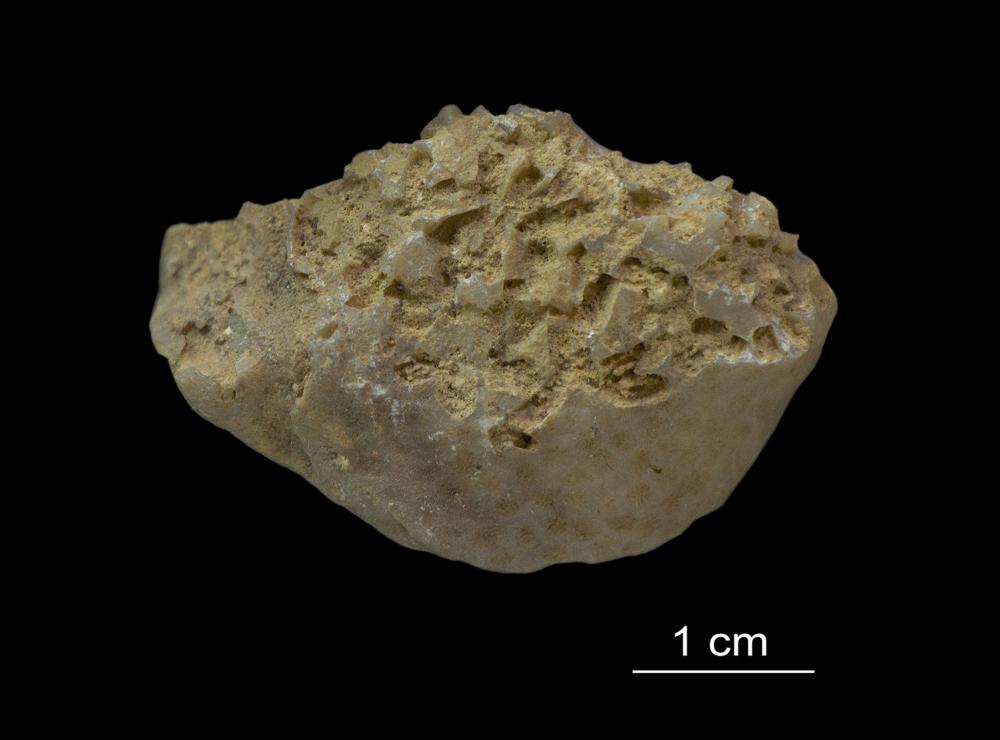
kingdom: Animalia
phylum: Cnidaria
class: Anthozoa
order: Scleractinia
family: Poritidae
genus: Protaraea
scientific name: Protaraea
